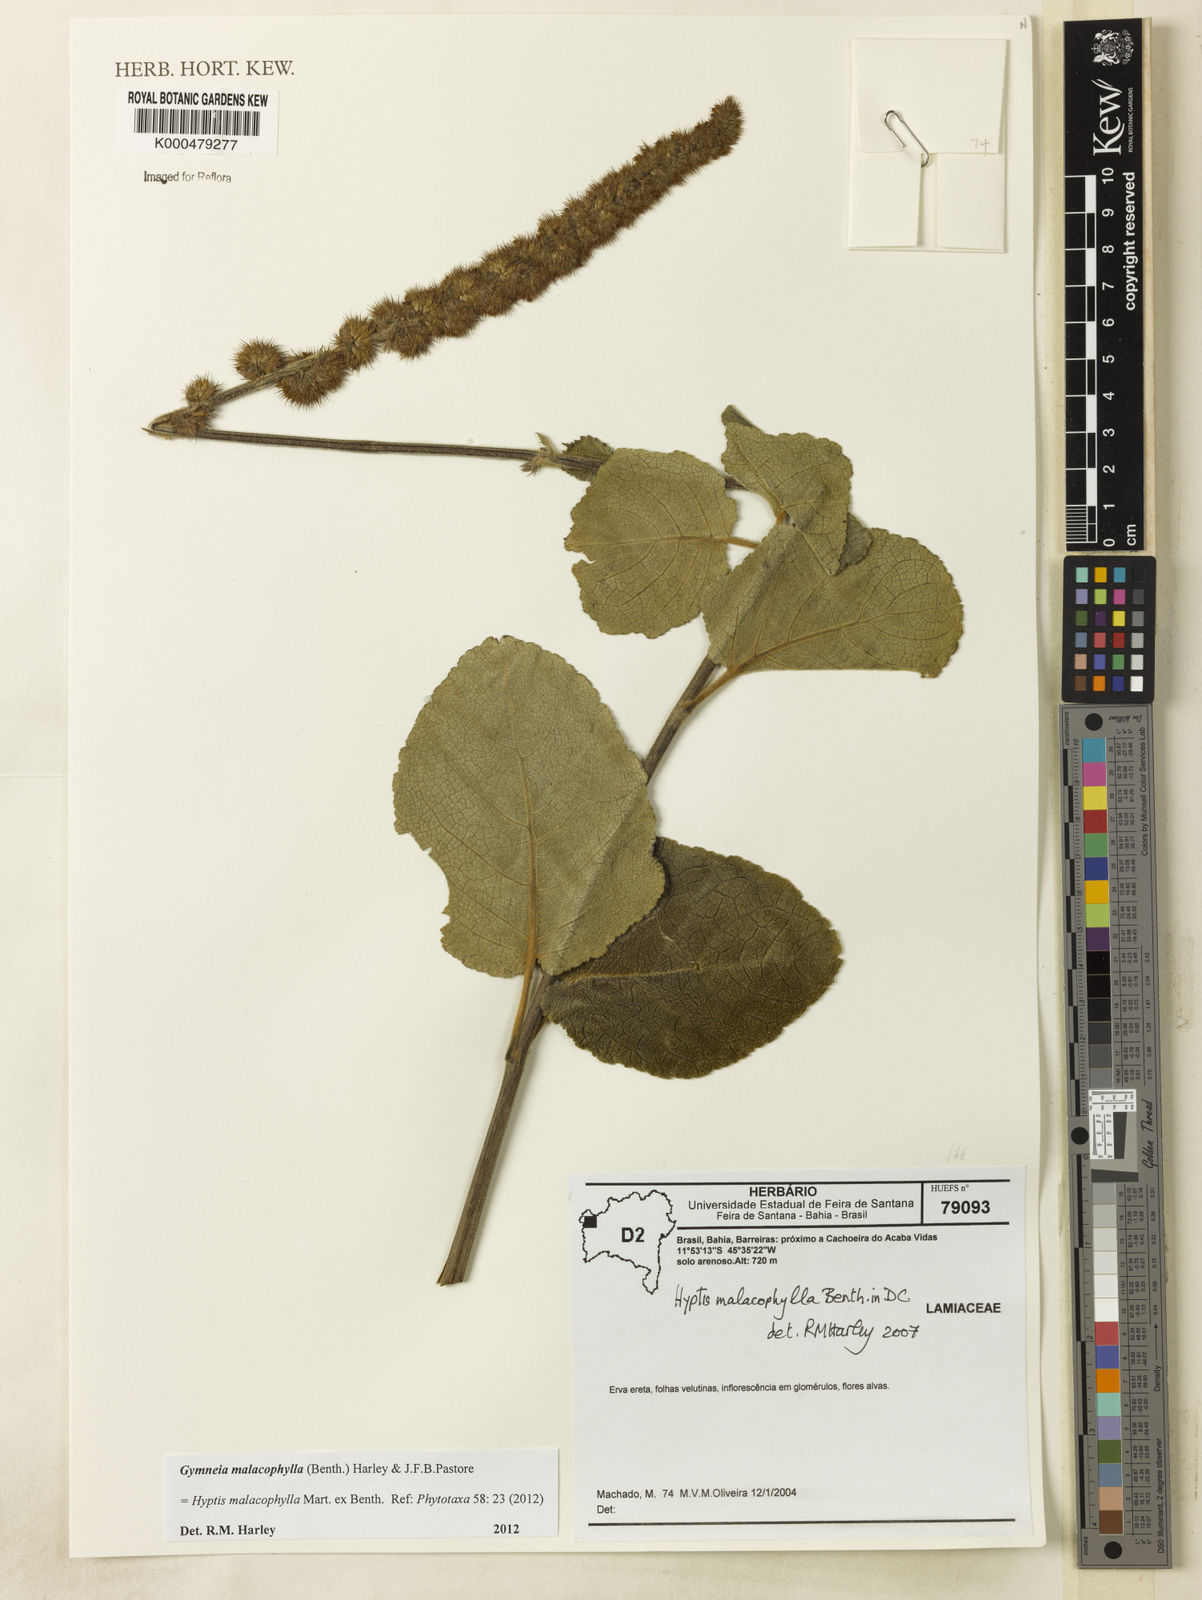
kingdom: Plantae
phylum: Tracheophyta
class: Magnoliopsida
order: Lamiales
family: Lamiaceae
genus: Gymneia
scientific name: Gymneia malacophylla
